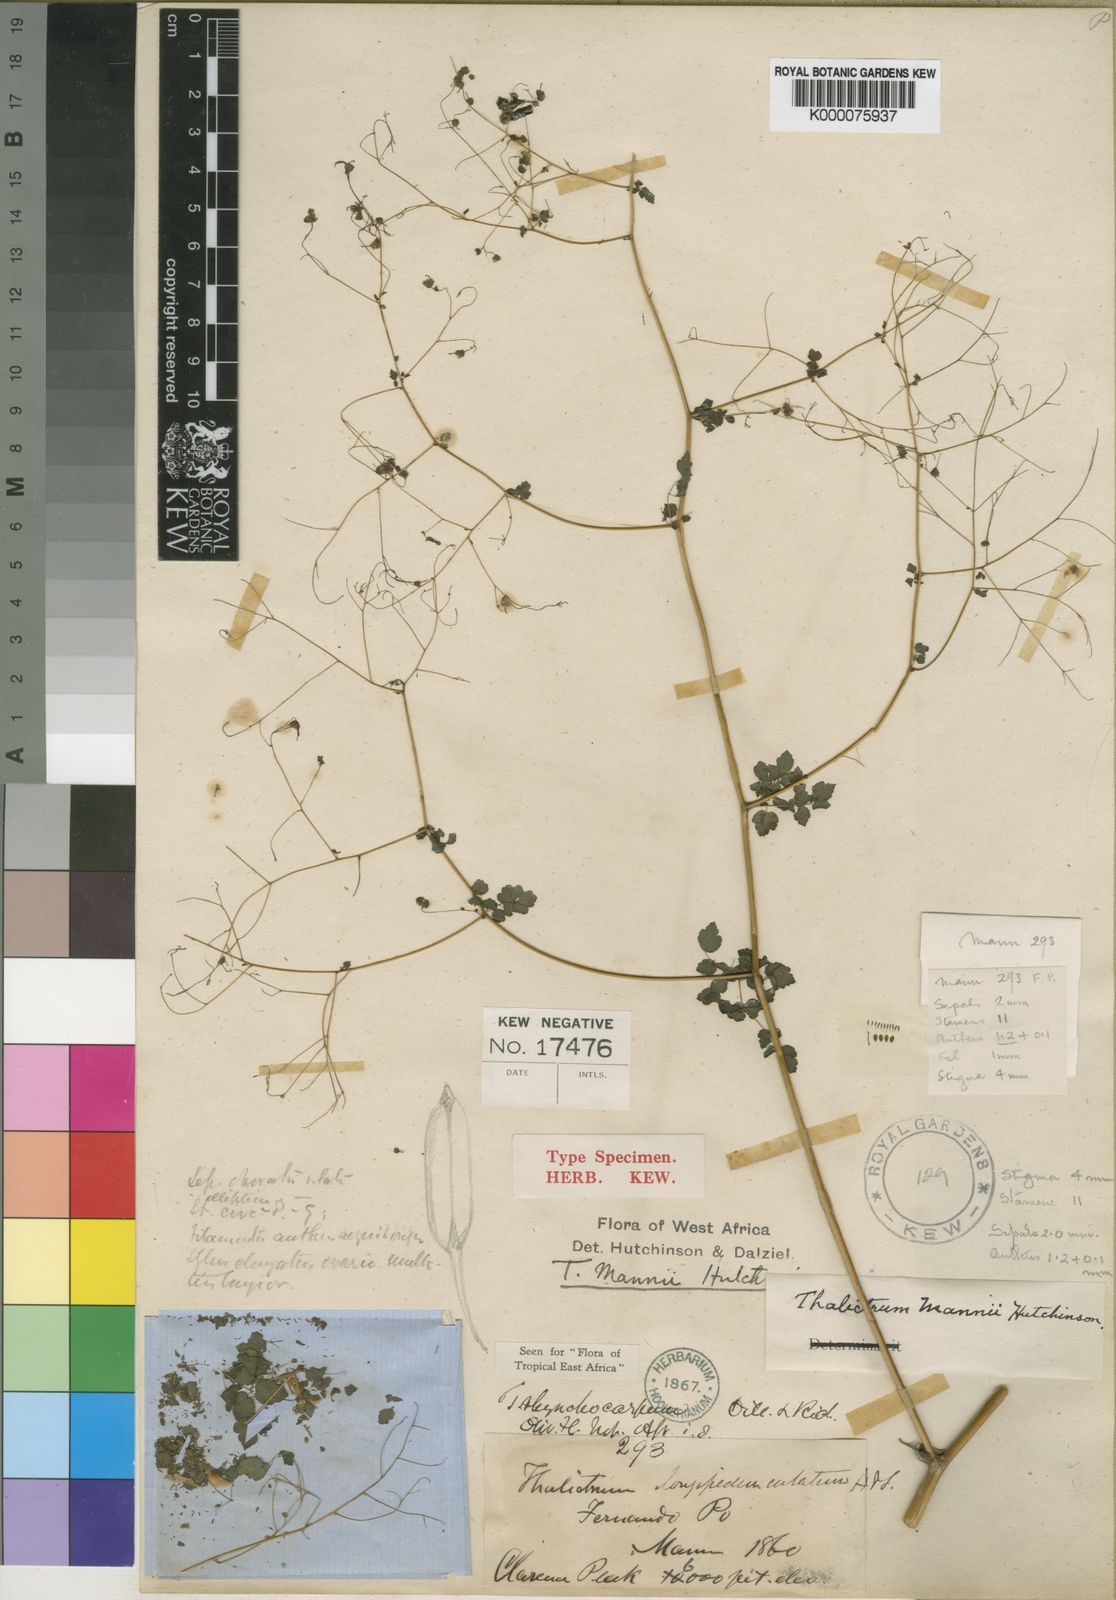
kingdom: Plantae
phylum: Tracheophyta
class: Magnoliopsida
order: Ranunculales
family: Ranunculaceae
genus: Thalictrum
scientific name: Thalictrum rhynchocarpum
